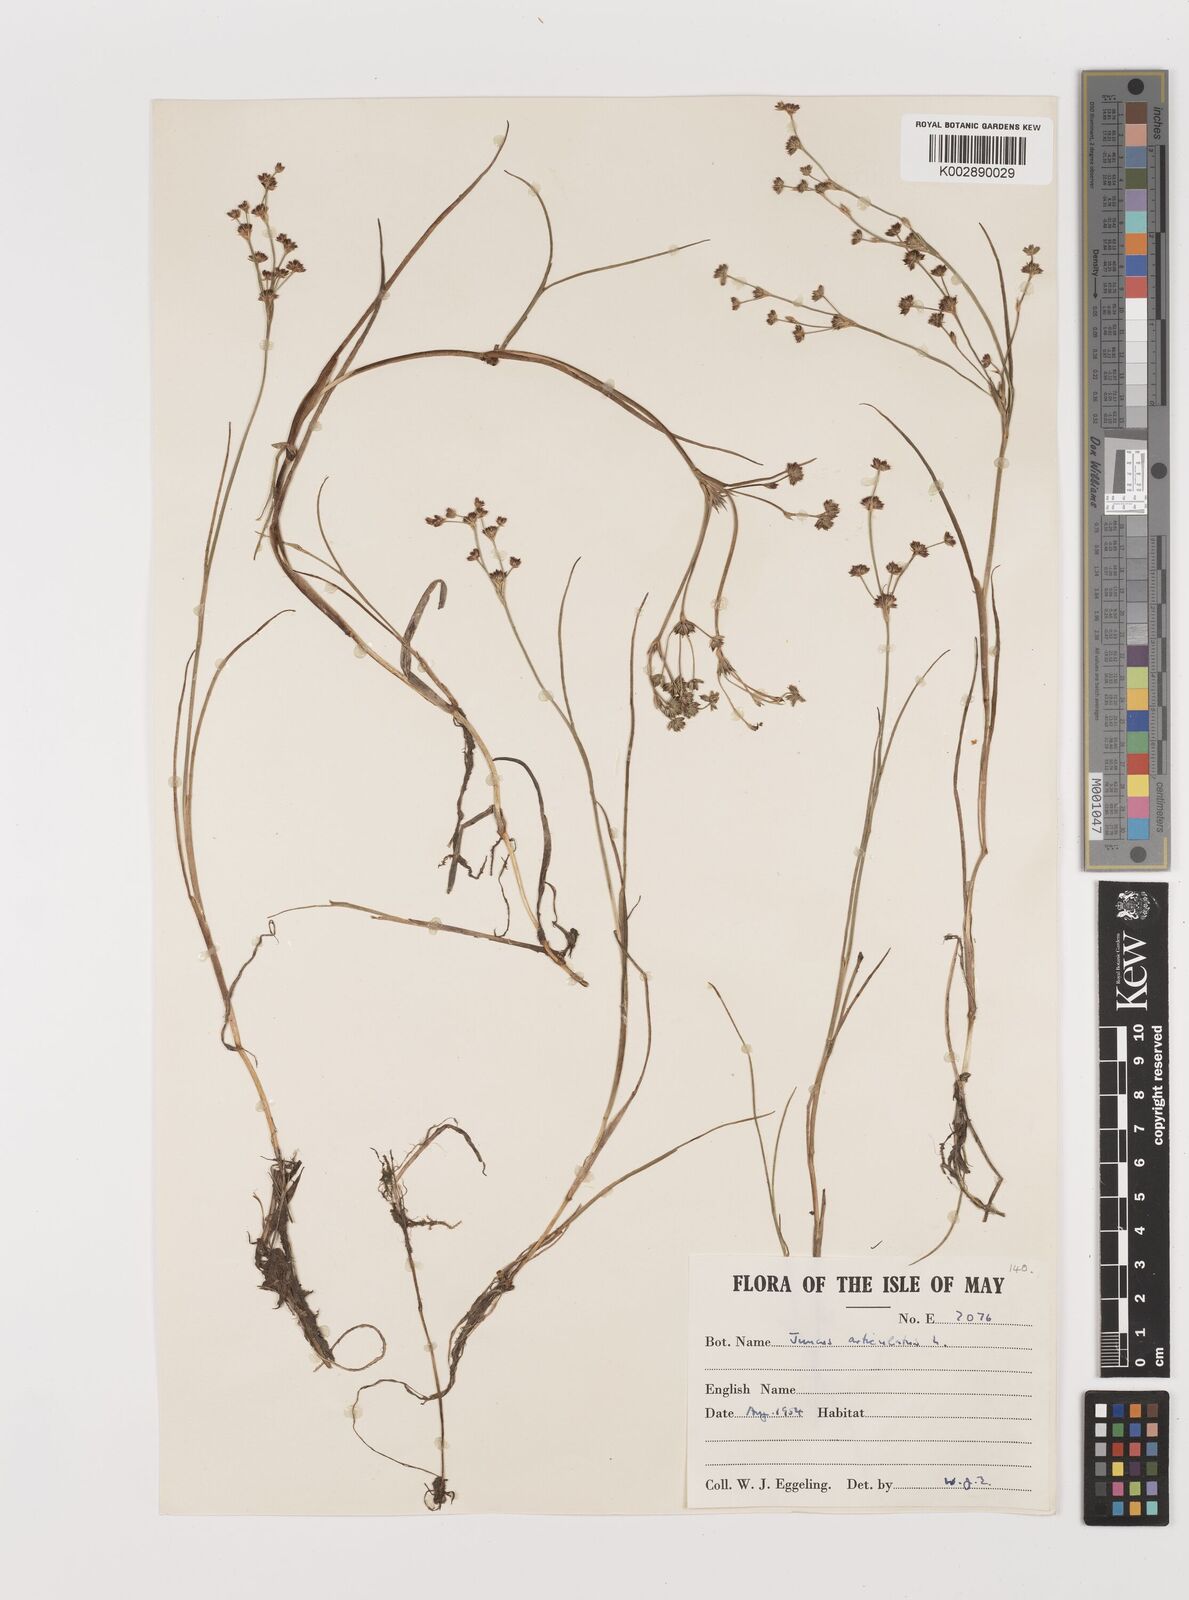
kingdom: Plantae
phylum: Tracheophyta
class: Liliopsida
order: Poales
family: Juncaceae
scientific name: Juncaceae
